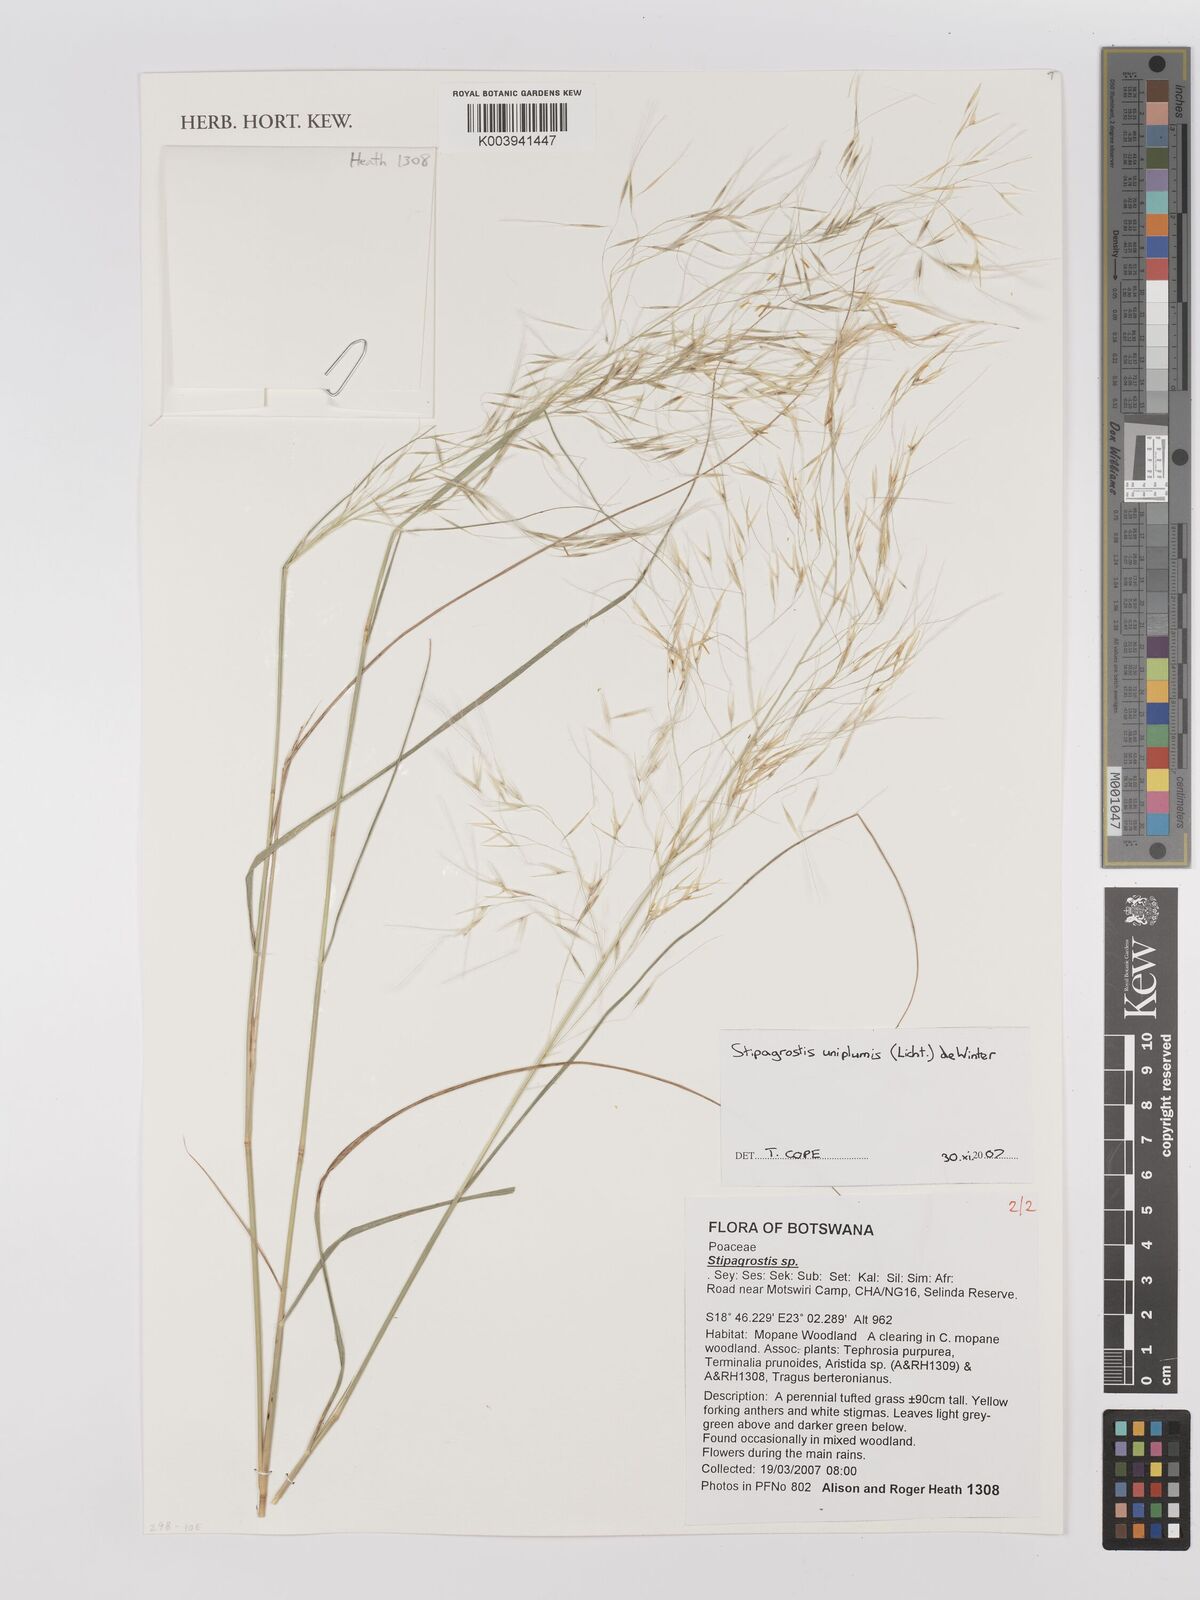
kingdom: Plantae
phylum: Tracheophyta
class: Liliopsida
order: Poales
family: Poaceae
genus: Stipagrostis
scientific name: Stipagrostis uniplumis
